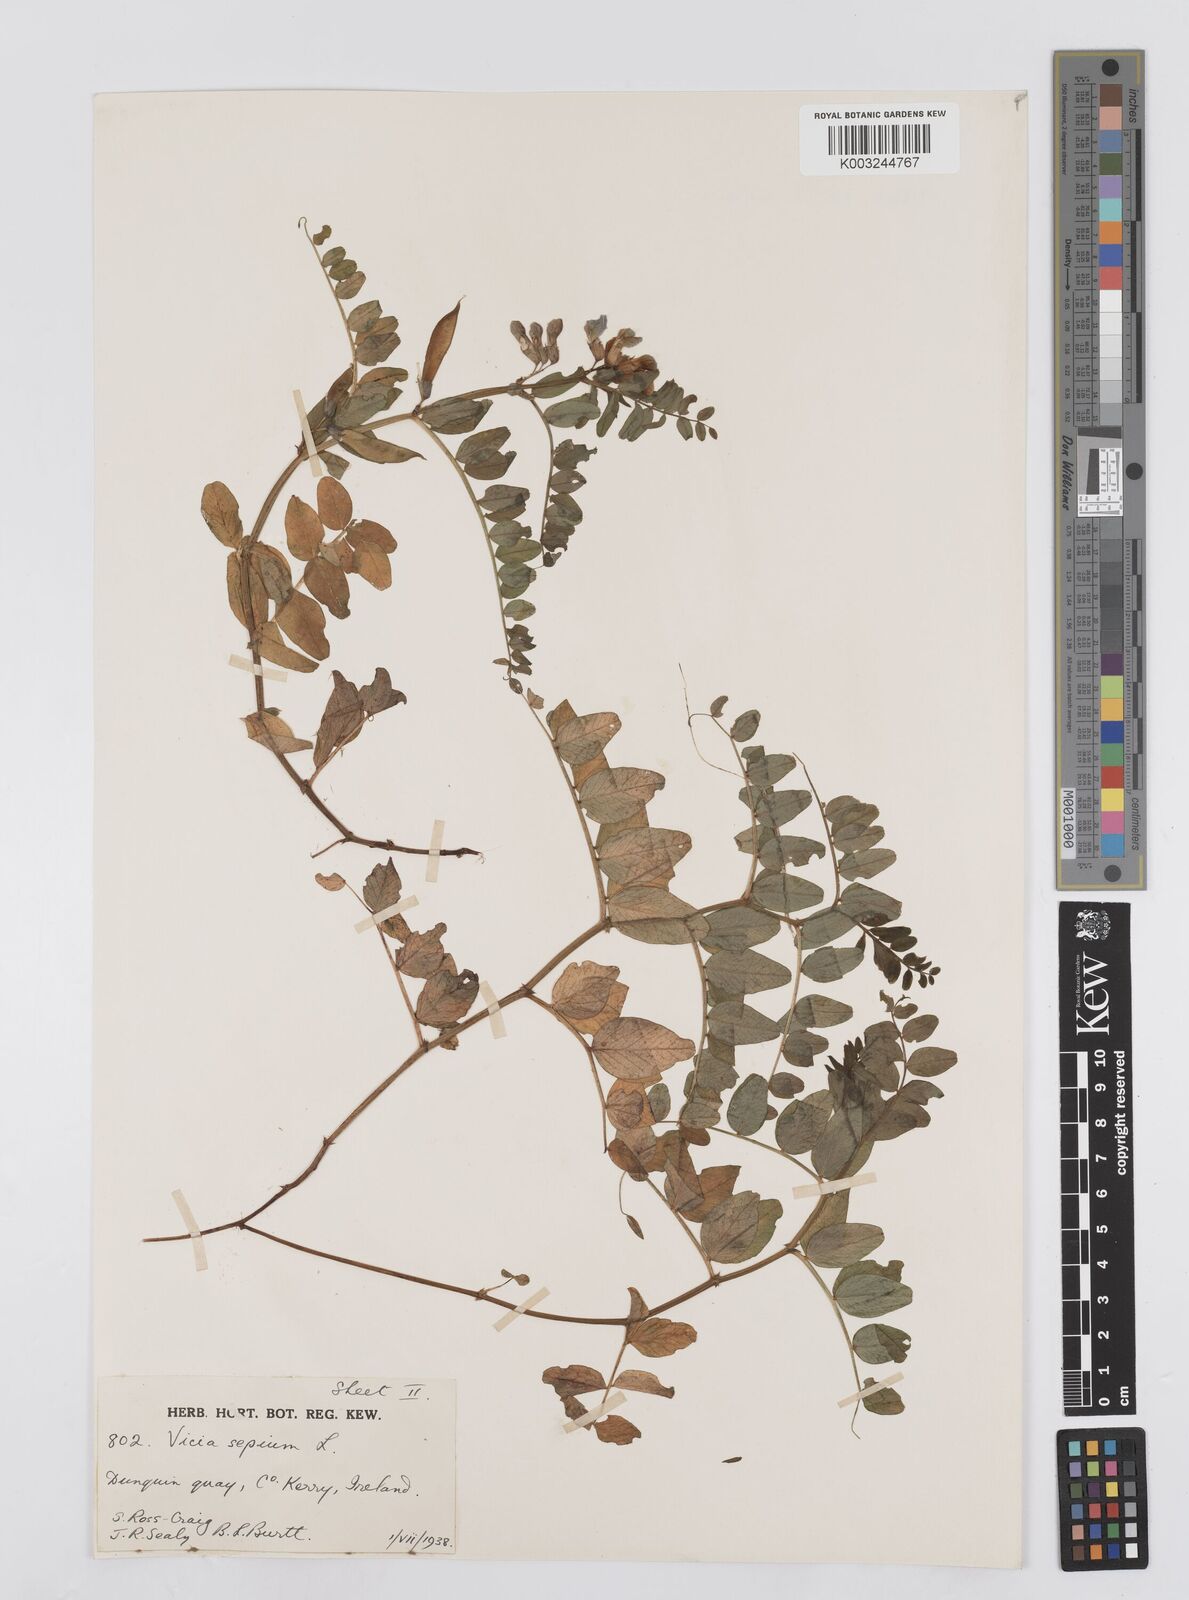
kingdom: Plantae
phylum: Tracheophyta
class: Magnoliopsida
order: Fabales
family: Fabaceae
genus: Vicia
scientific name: Vicia sepium
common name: Bush vetch
